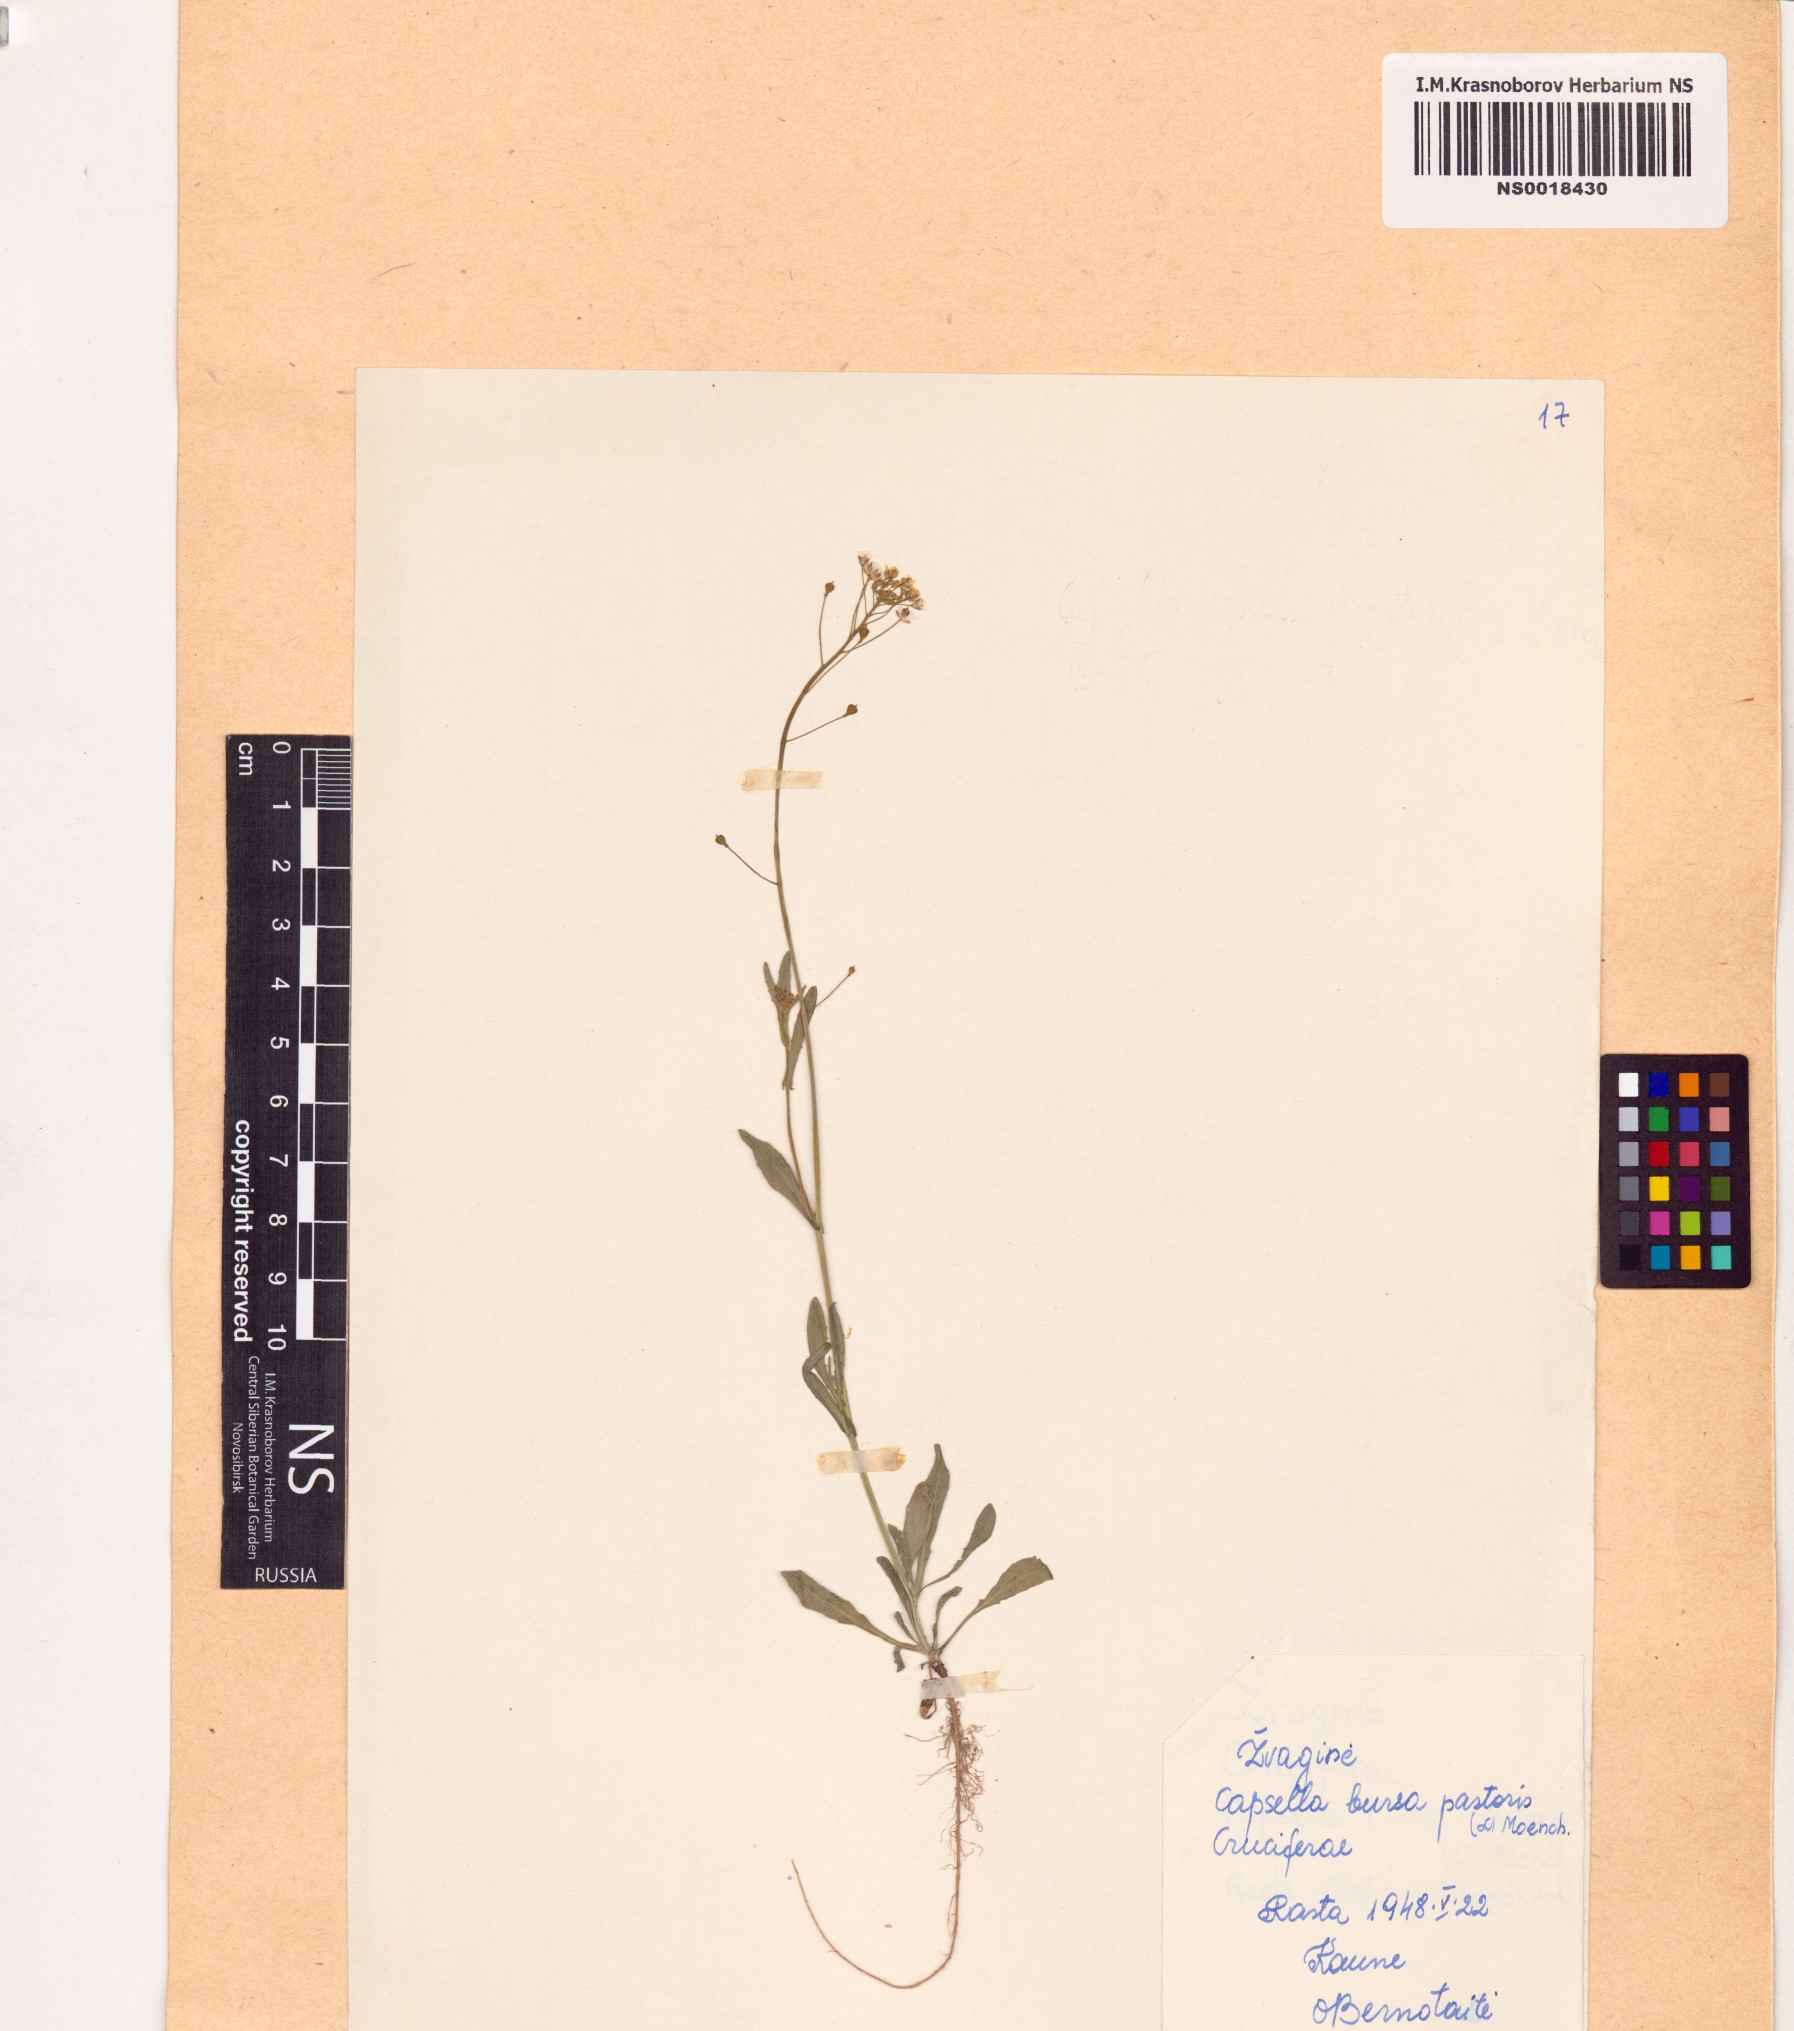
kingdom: Plantae
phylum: Tracheophyta
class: Magnoliopsida
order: Brassicales
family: Brassicaceae
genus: Capsella
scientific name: Capsella bursa-pastoris
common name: Shepherd's purse
